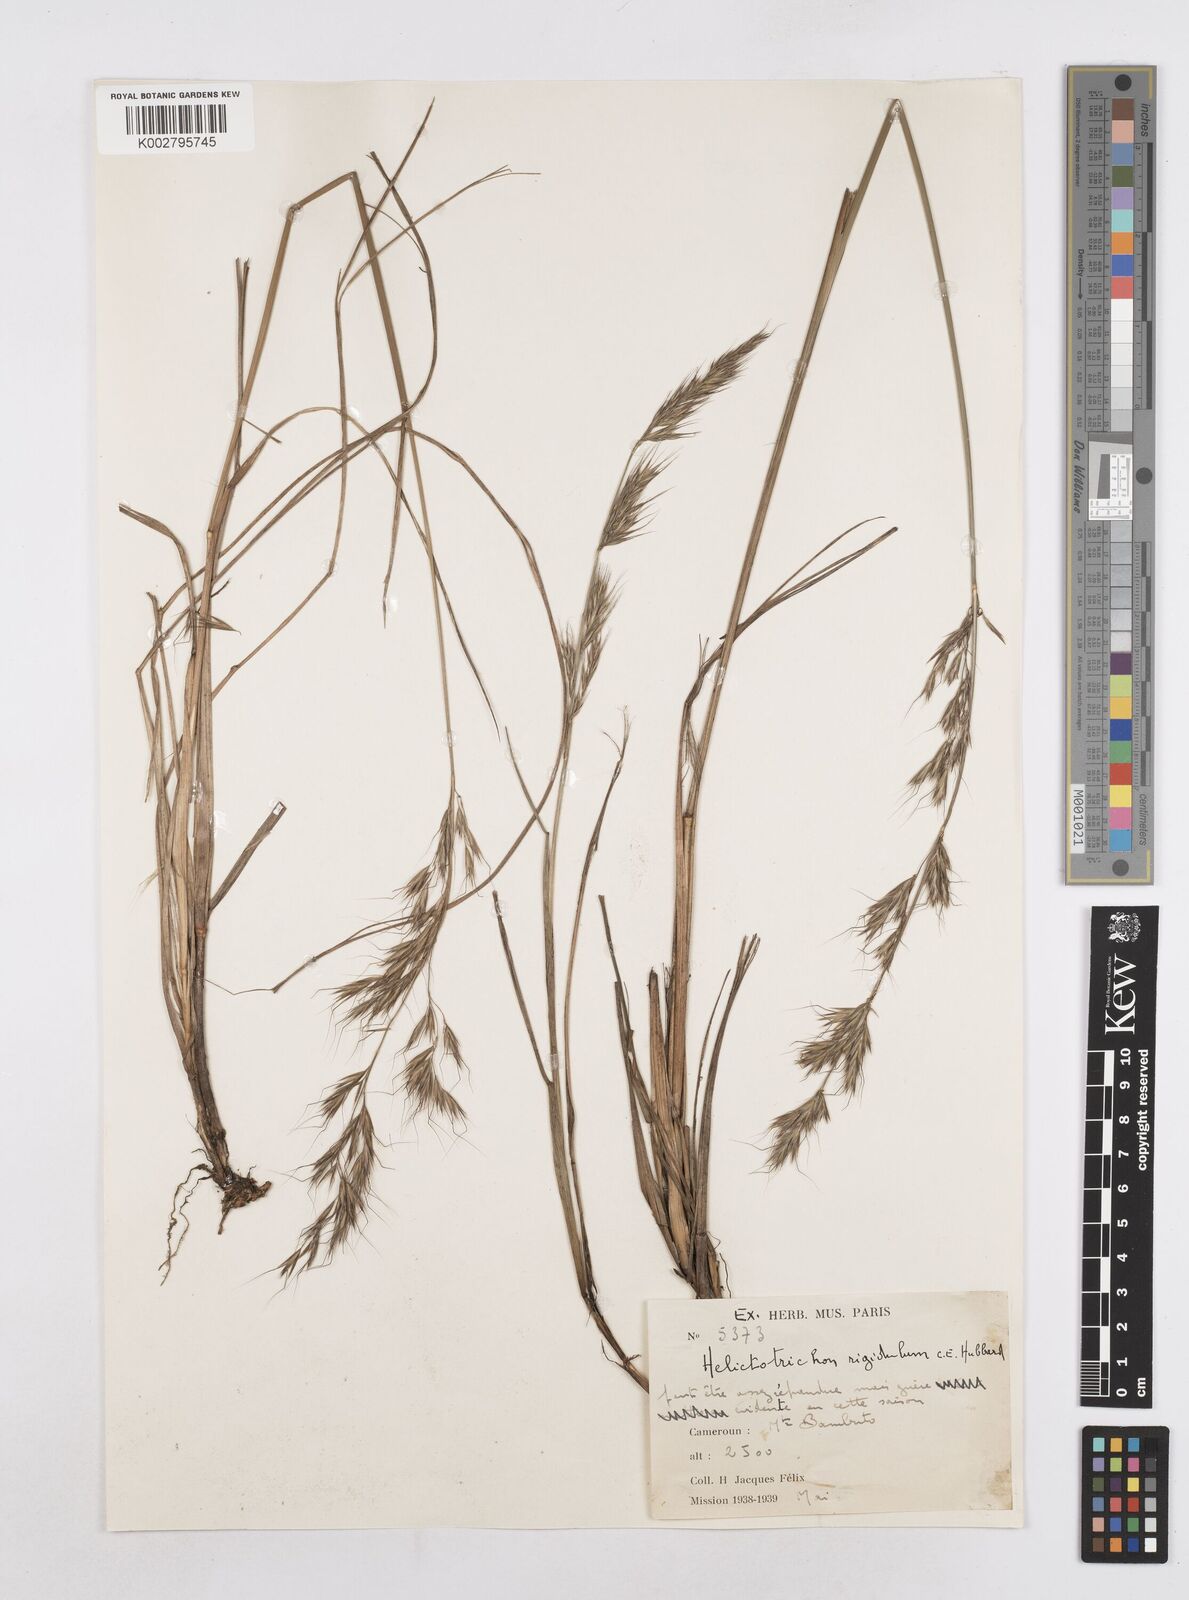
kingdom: Plantae
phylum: Tracheophyta
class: Liliopsida
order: Poales
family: Poaceae
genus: Trisetopsis
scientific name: Trisetopsis elongata
